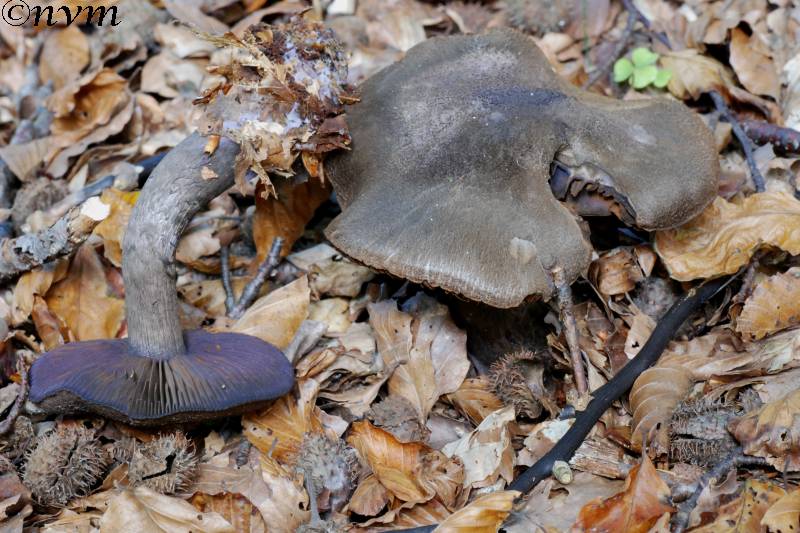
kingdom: Fungi
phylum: Basidiomycota
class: Agaricomycetes
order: Agaricales
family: Cortinariaceae
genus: Cortinarius
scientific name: Cortinarius violaceus
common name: mørkviolet slørhat
